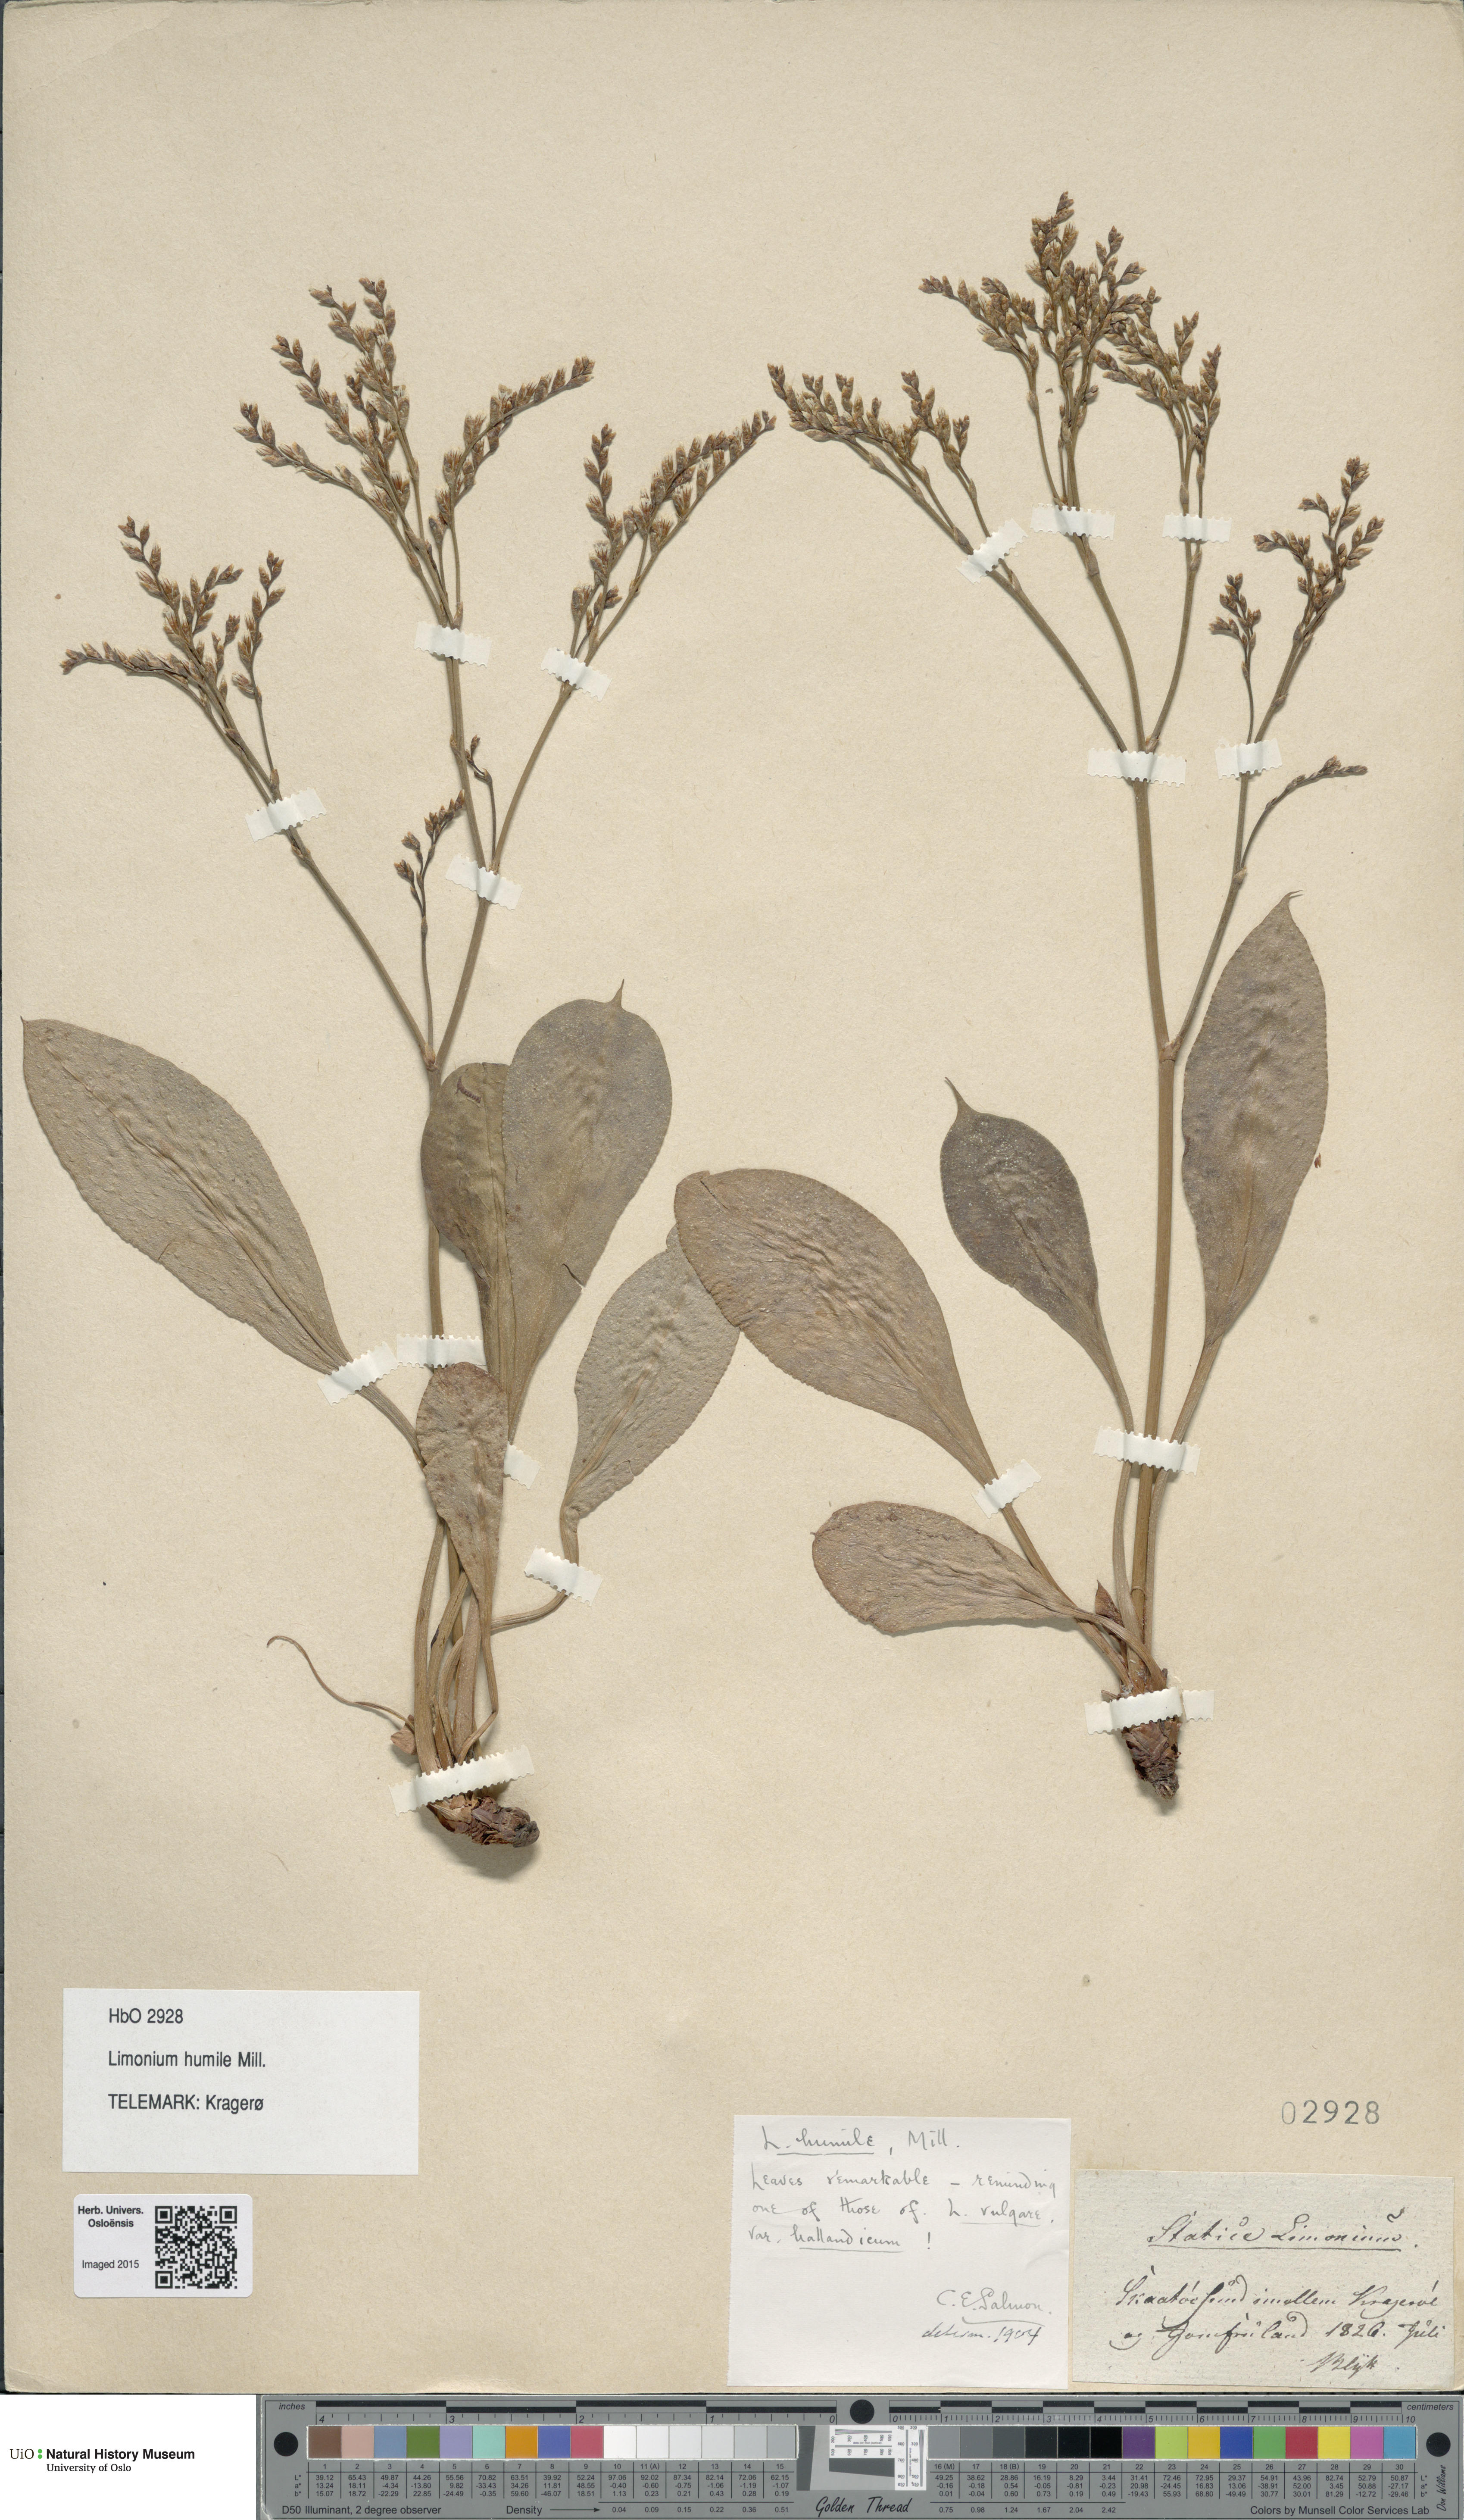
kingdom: Plantae
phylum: Tracheophyta
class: Magnoliopsida
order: Caryophyllales
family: Plumbaginaceae
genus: Limonium
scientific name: Limonium humile
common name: Lax-flowered sea-lavender
